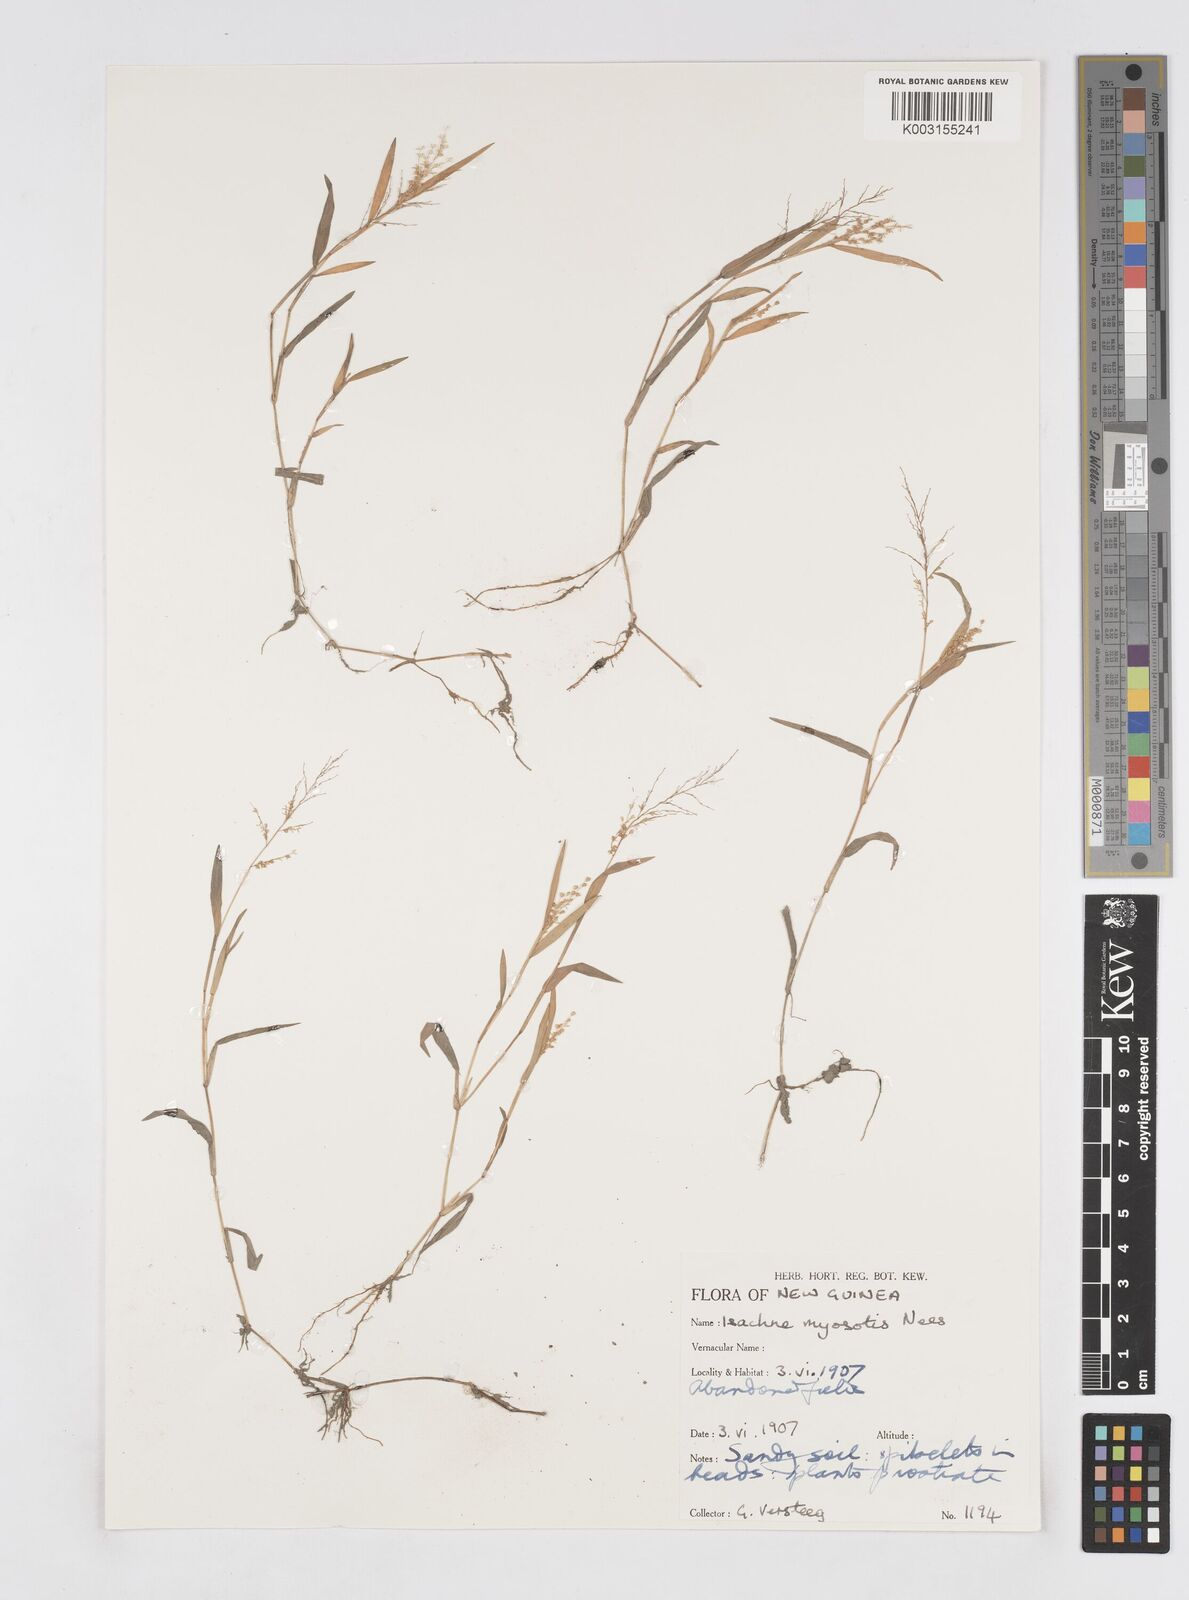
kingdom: Plantae
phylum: Tracheophyta
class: Liliopsida
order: Poales
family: Poaceae
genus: Isachne
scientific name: Isachne myosotis
